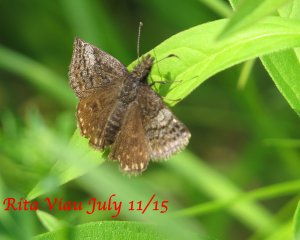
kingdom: Animalia
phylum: Arthropoda
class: Insecta
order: Lepidoptera
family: Hesperiidae
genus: Erynnis
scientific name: Erynnis icelus
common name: Dreamy Duskywing
